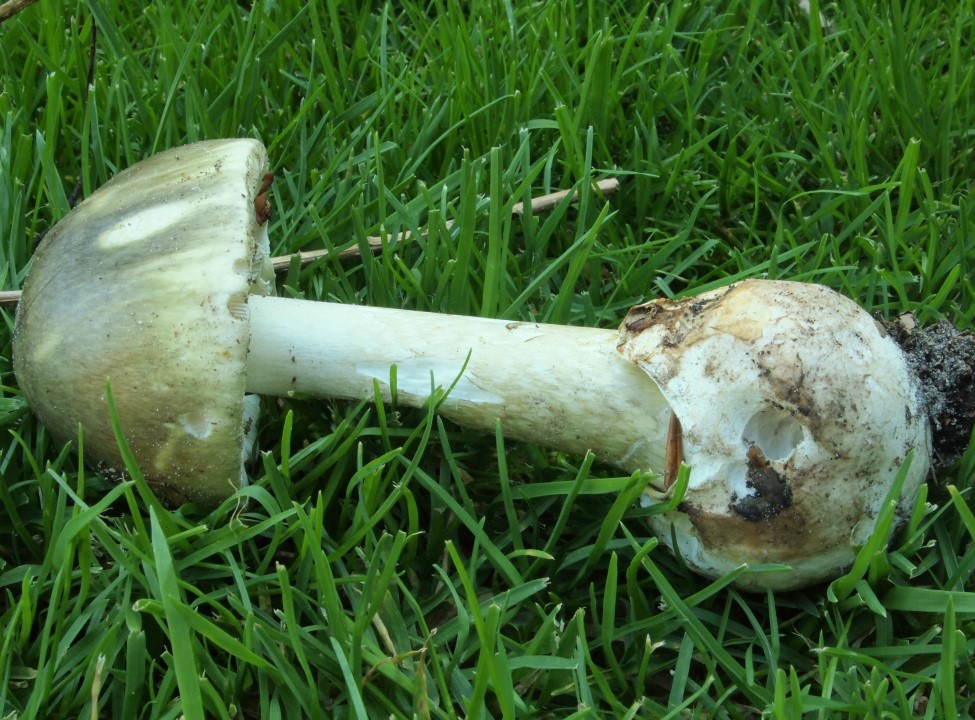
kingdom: Fungi
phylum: Basidiomycota
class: Agaricomycetes
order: Agaricales
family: Amanitaceae
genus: Amanita
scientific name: Amanita phalloides
